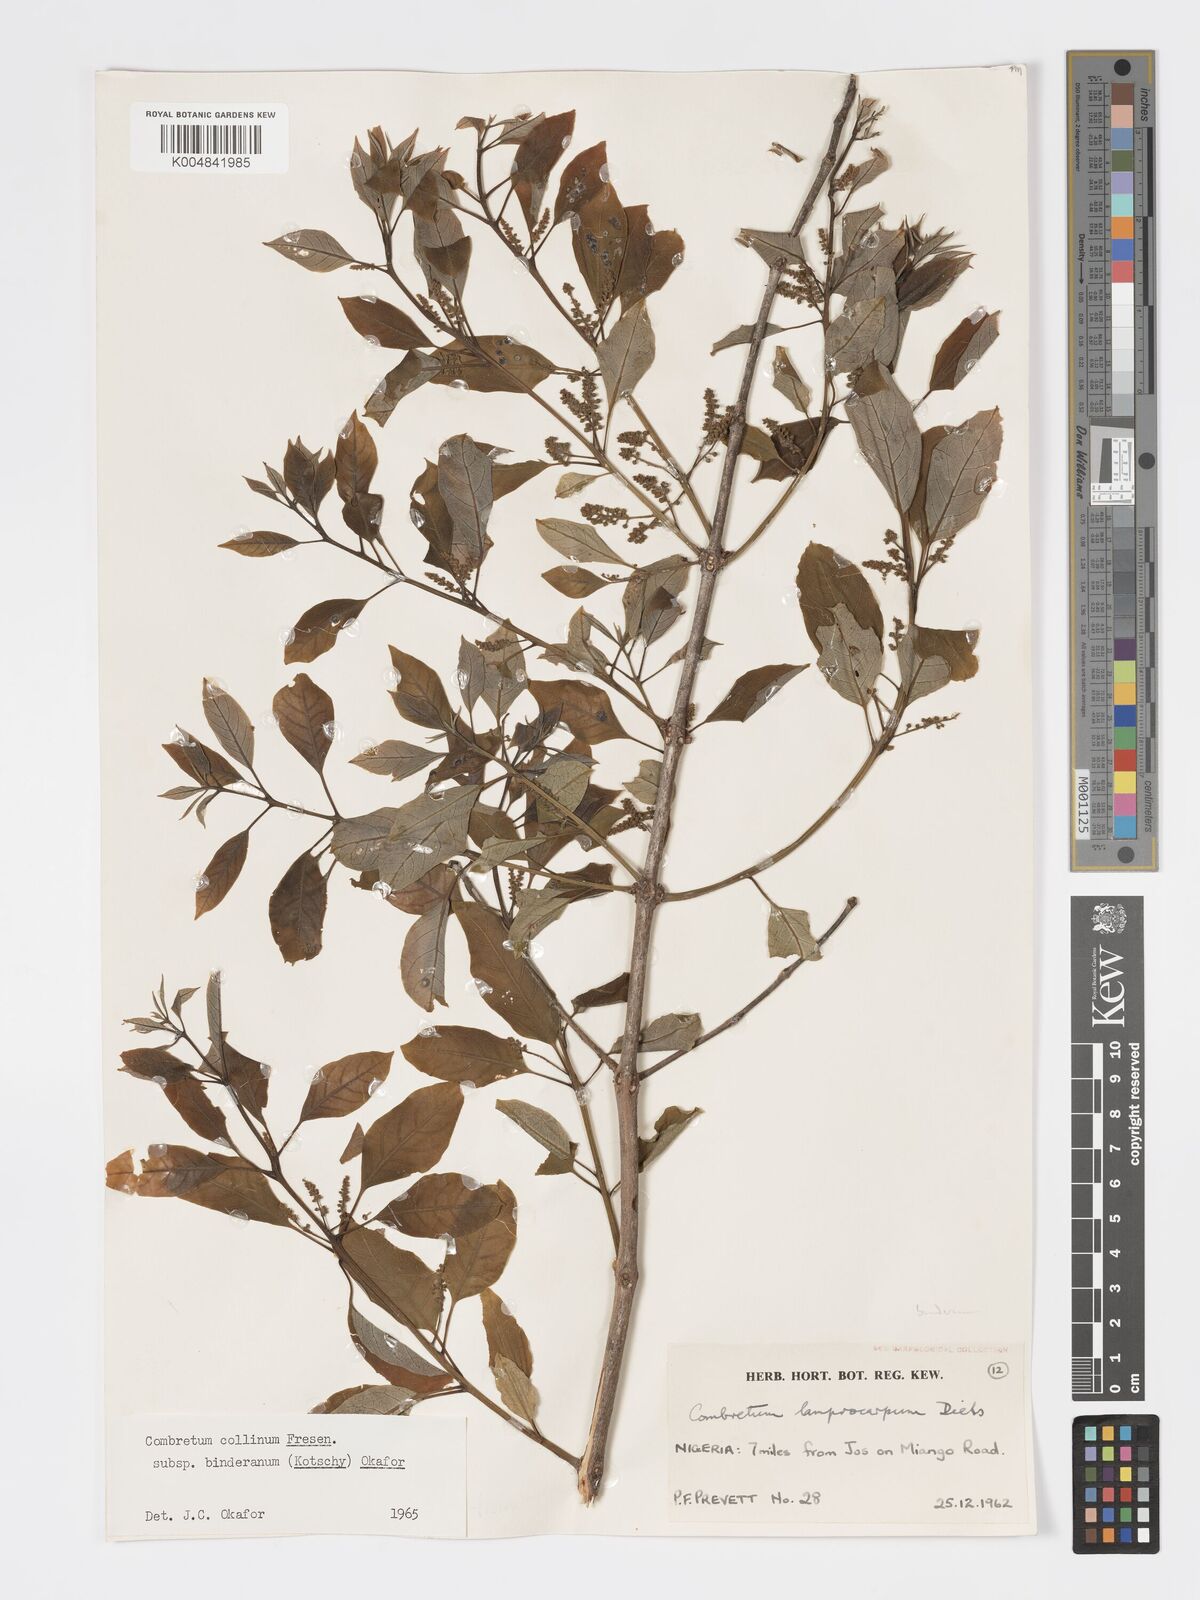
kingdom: Plantae
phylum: Tracheophyta
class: Magnoliopsida
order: Myrtales
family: Combretaceae
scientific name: Combretaceae
